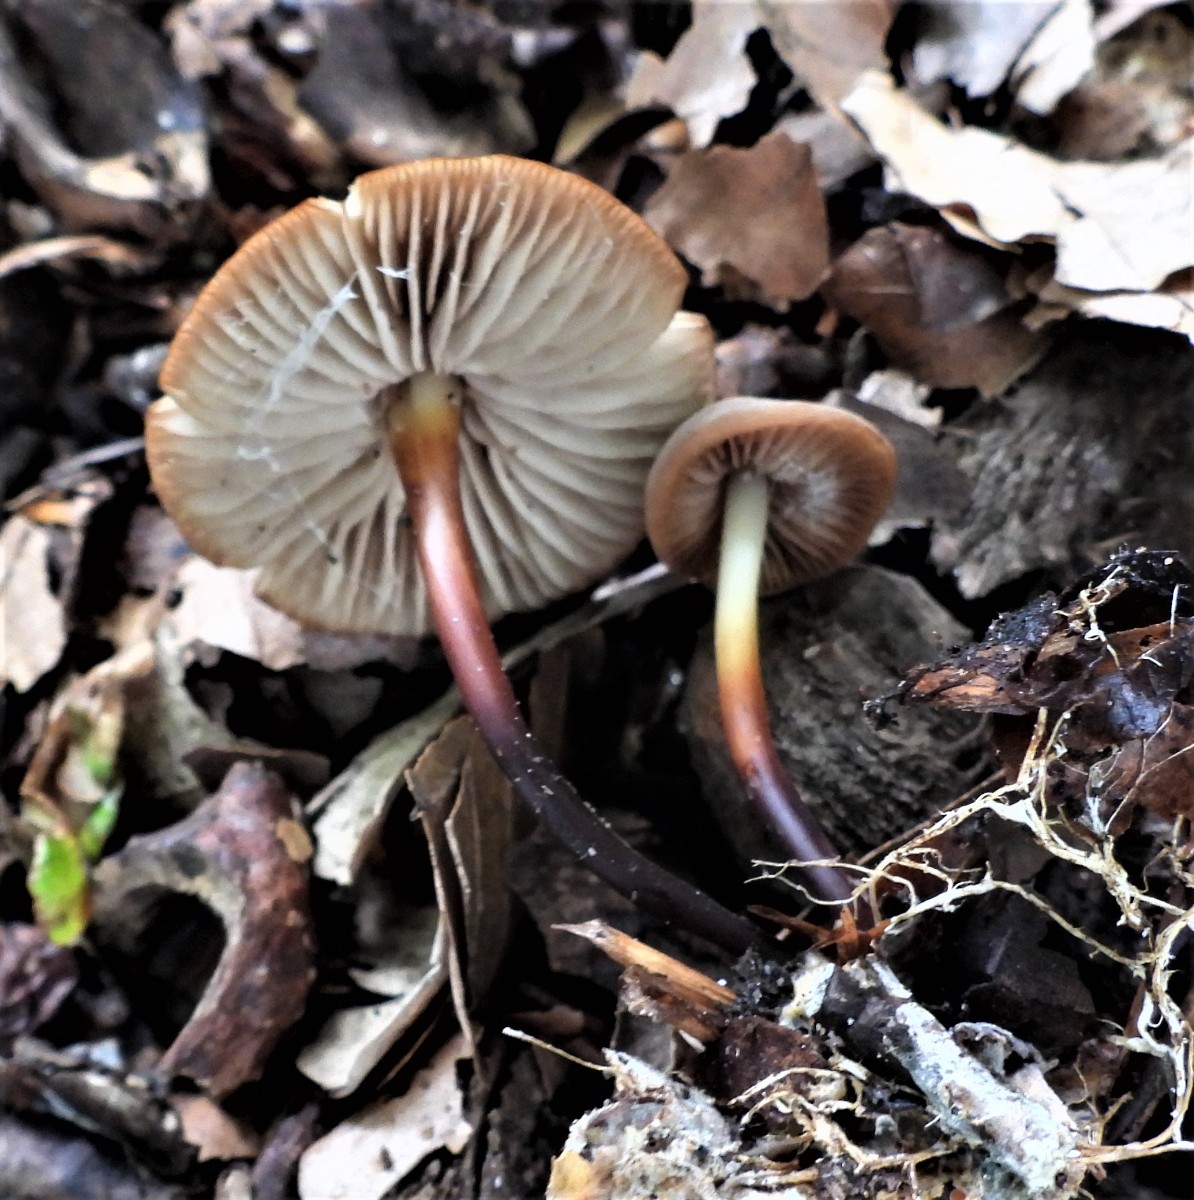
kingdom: Fungi
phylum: Basidiomycota
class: Agaricomycetes
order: Agaricales
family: Marasmiaceae
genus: Marasmius
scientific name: Marasmius cohaerens
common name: hornstokket bruskhat
